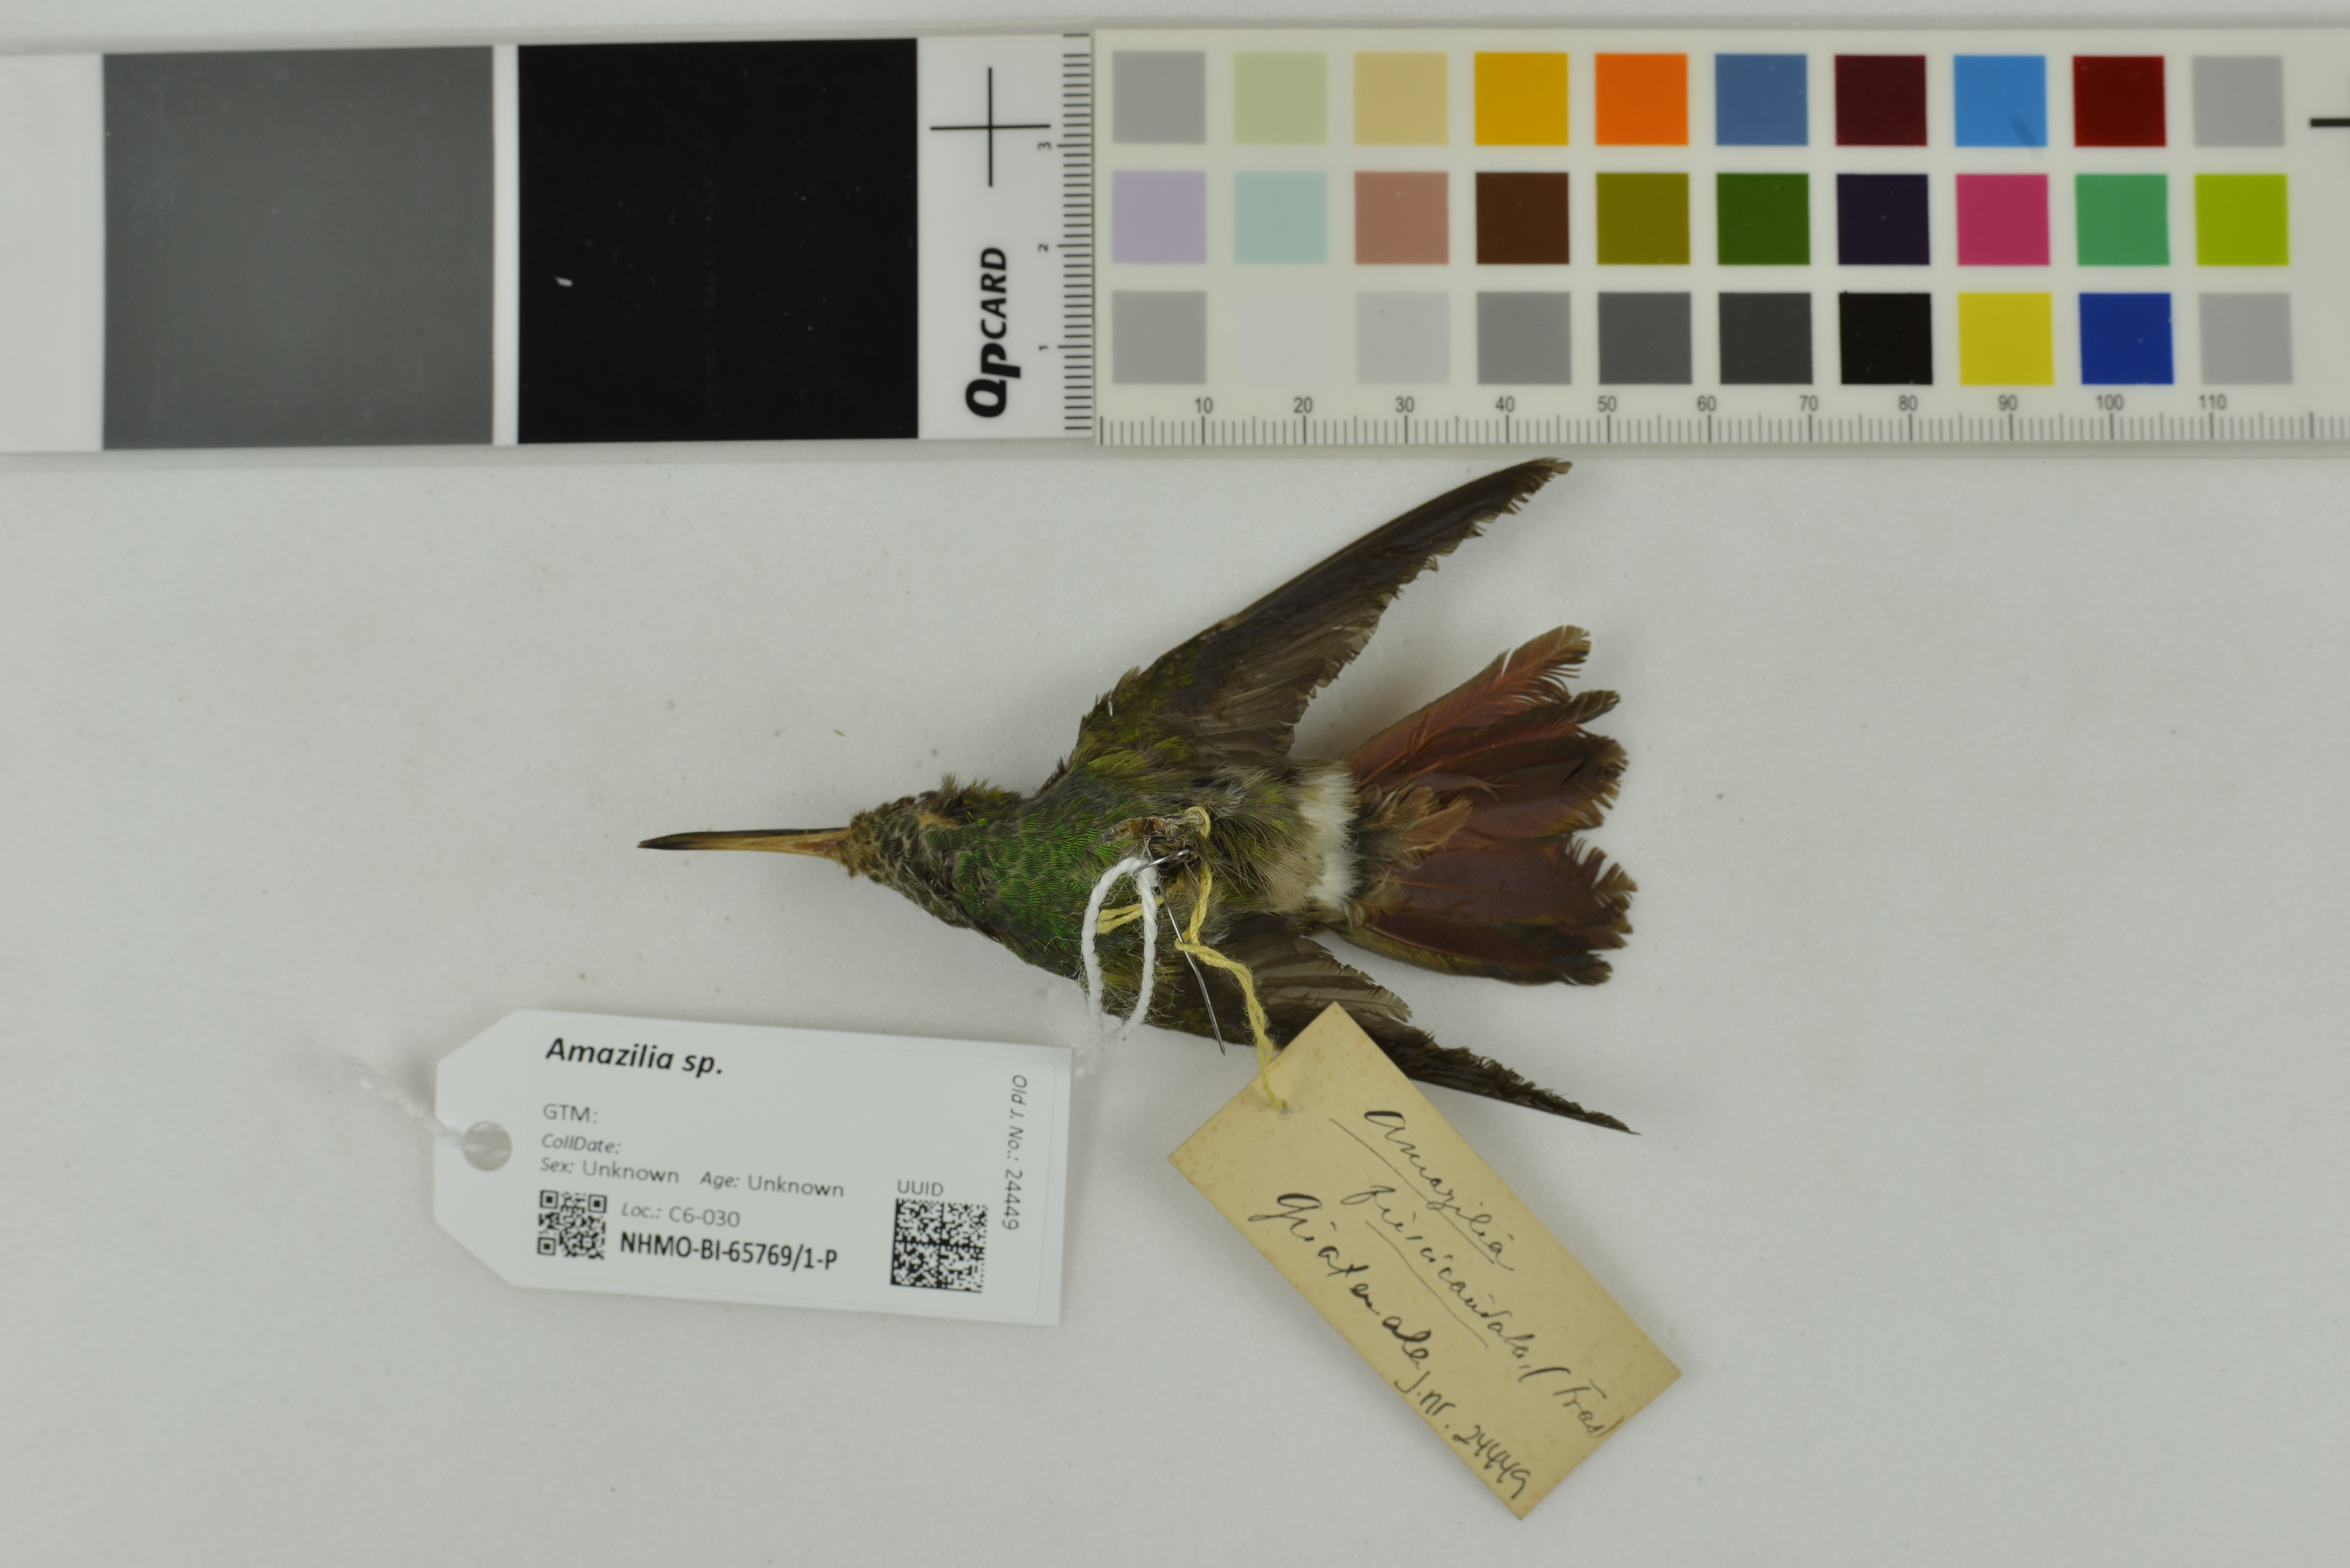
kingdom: Animalia
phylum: Chordata
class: Aves
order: Apodiformes
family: Trochilidae
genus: Amazilia
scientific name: Amazilia
